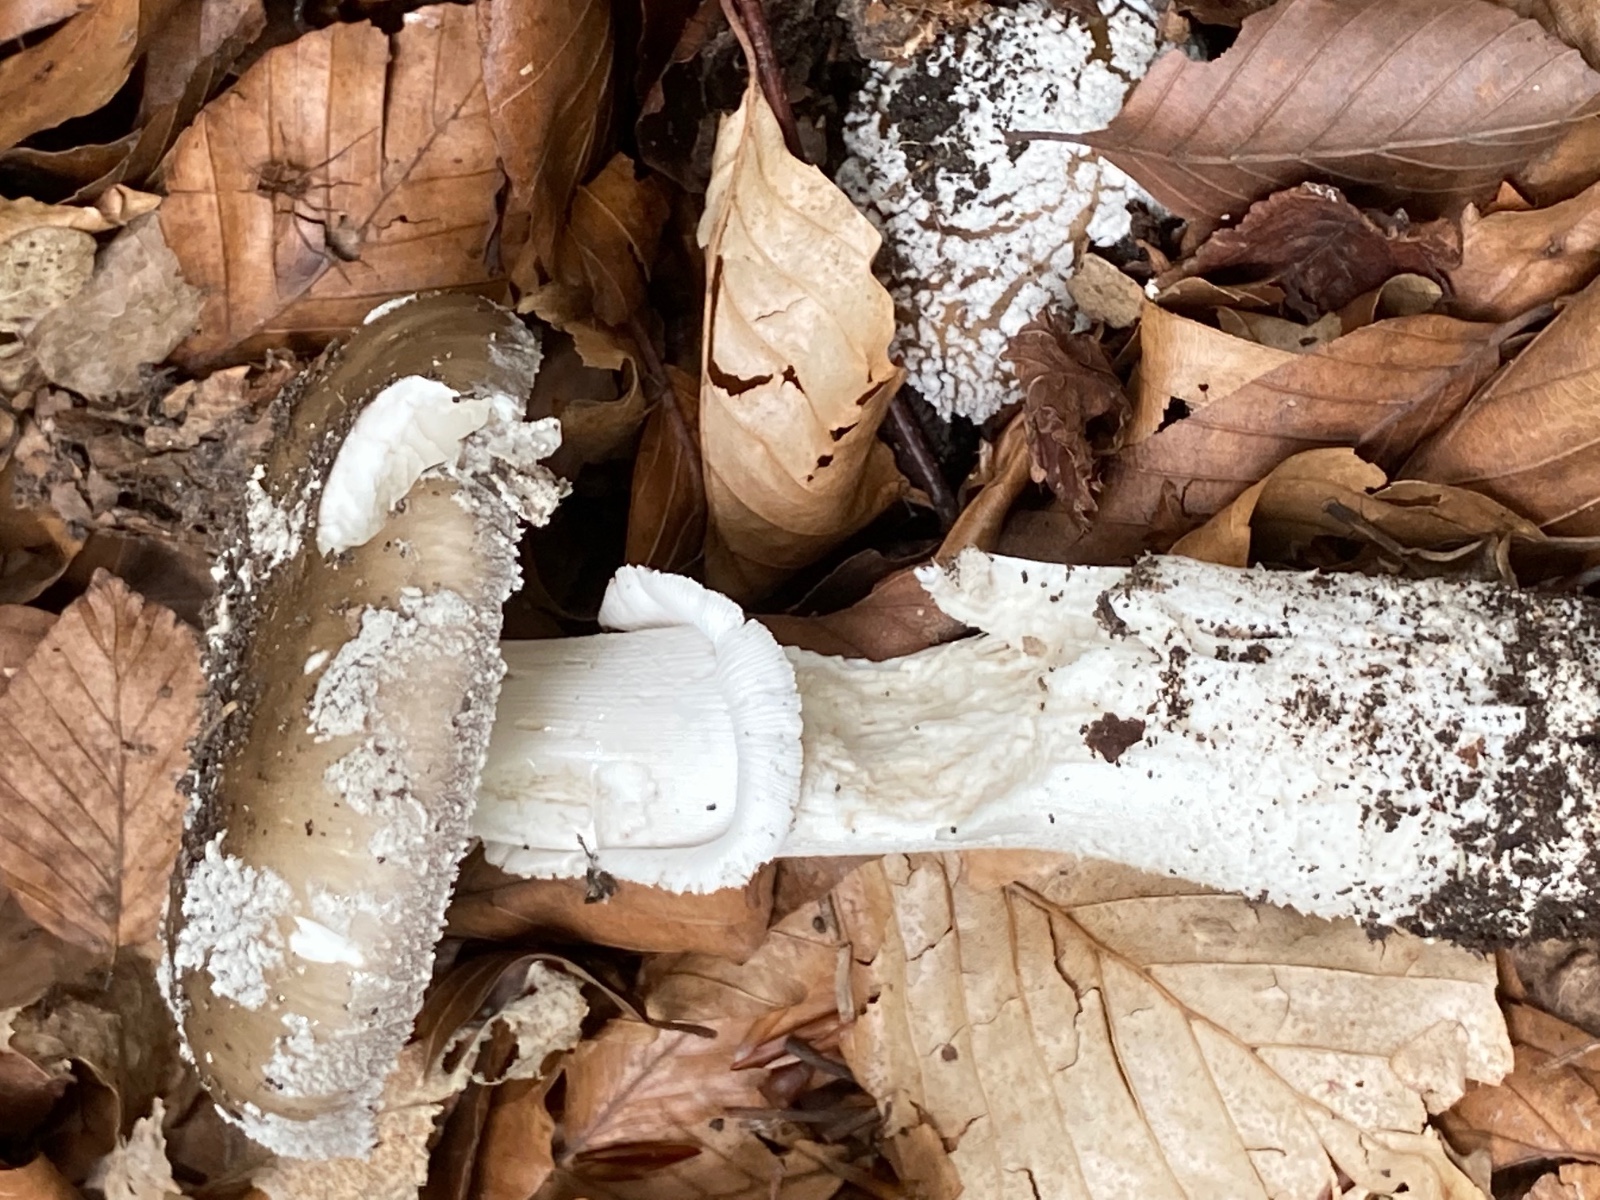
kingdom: Fungi
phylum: Basidiomycota
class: Agaricomycetes
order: Agaricales
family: Amanitaceae
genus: Amanita
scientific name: Amanita
